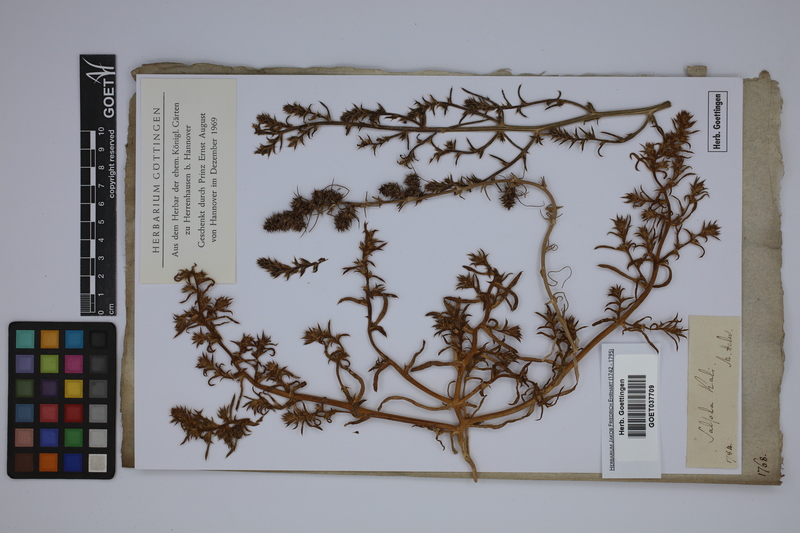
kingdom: Plantae
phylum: Tracheophyta
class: Magnoliopsida
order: Caryophyllales
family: Amaranthaceae
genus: Salsola
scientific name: Salsola kali
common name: Saltwort
